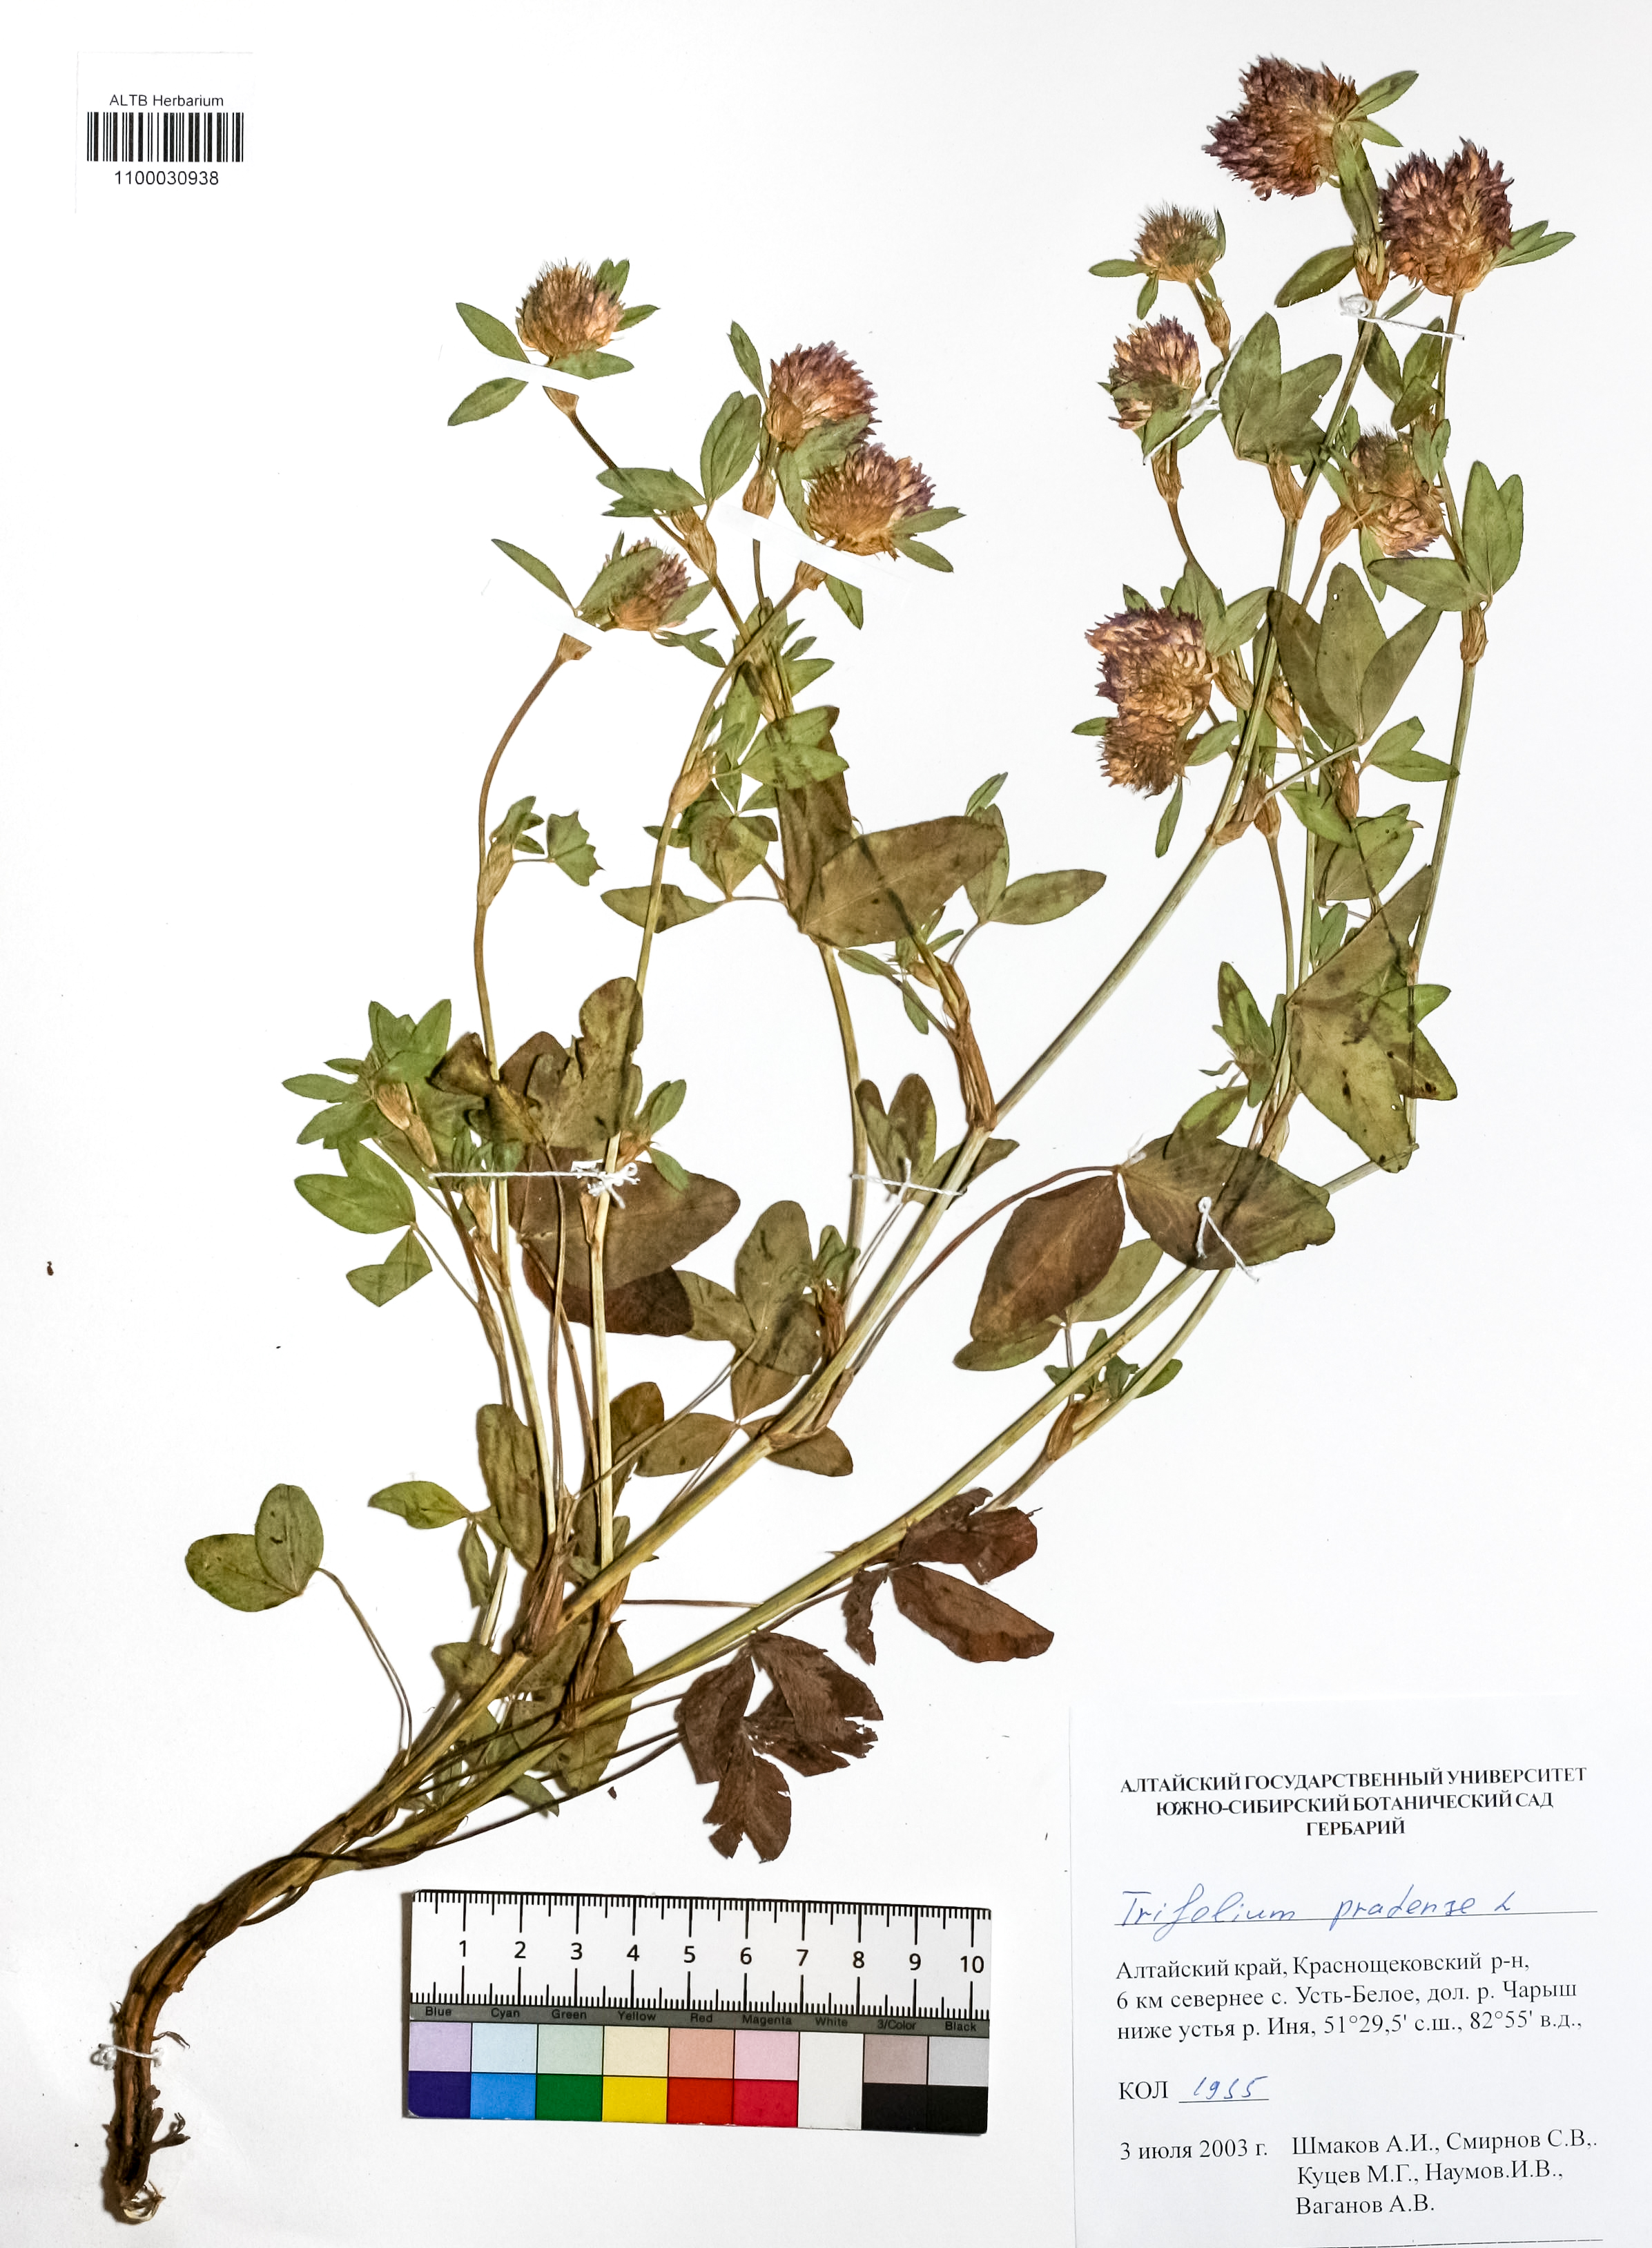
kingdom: Plantae
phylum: Tracheophyta
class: Magnoliopsida
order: Fabales
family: Fabaceae
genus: Trifolium
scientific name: Trifolium pratense
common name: Red clover
